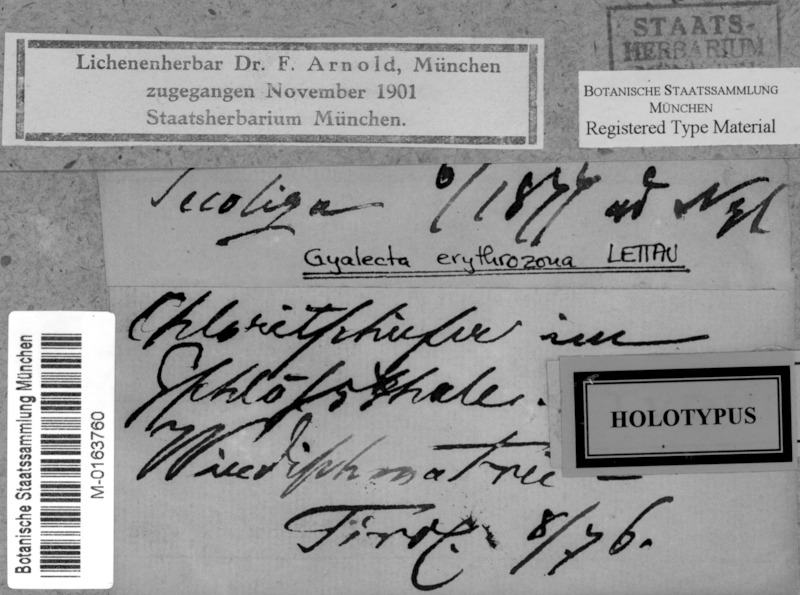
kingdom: Fungi
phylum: Ascomycota
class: Lecanoromycetes
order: Gyalectales
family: Gyalectaceae
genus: Gyalecta
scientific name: Gyalecta erythrozona
